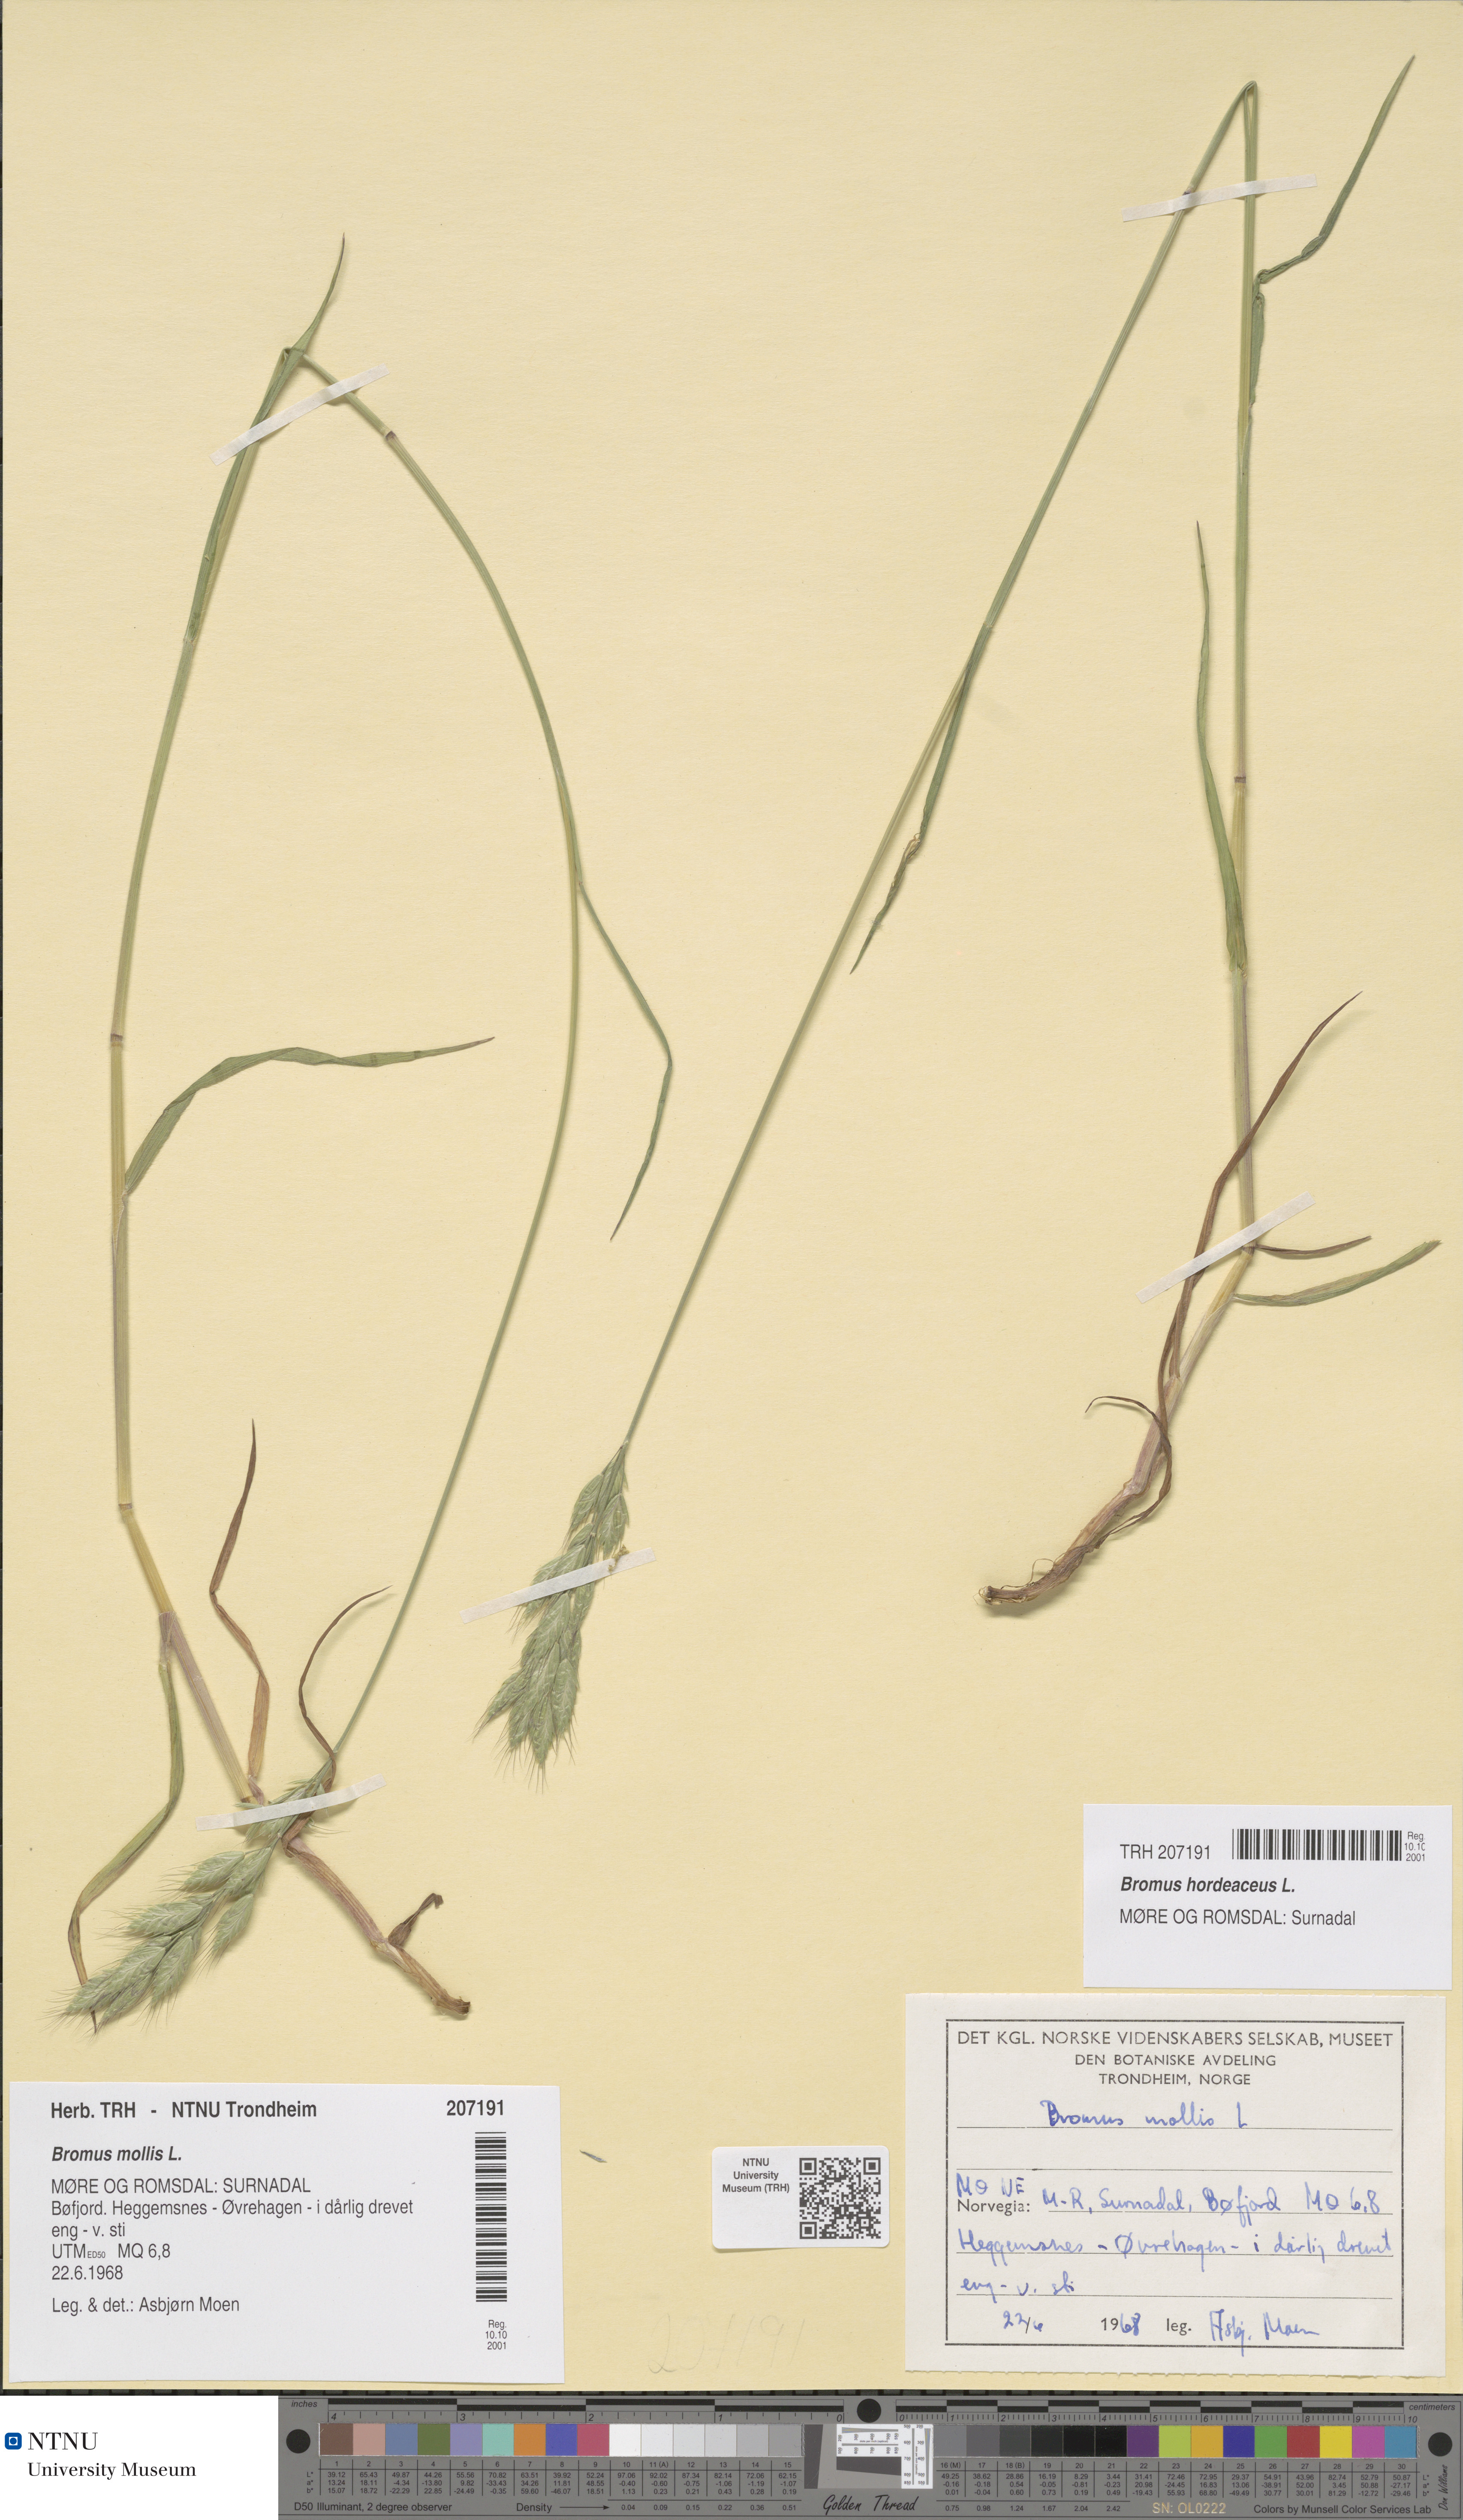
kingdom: Plantae
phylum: Tracheophyta
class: Liliopsida
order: Poales
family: Poaceae
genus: Bromus
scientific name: Bromus hordeaceus
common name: Soft brome
